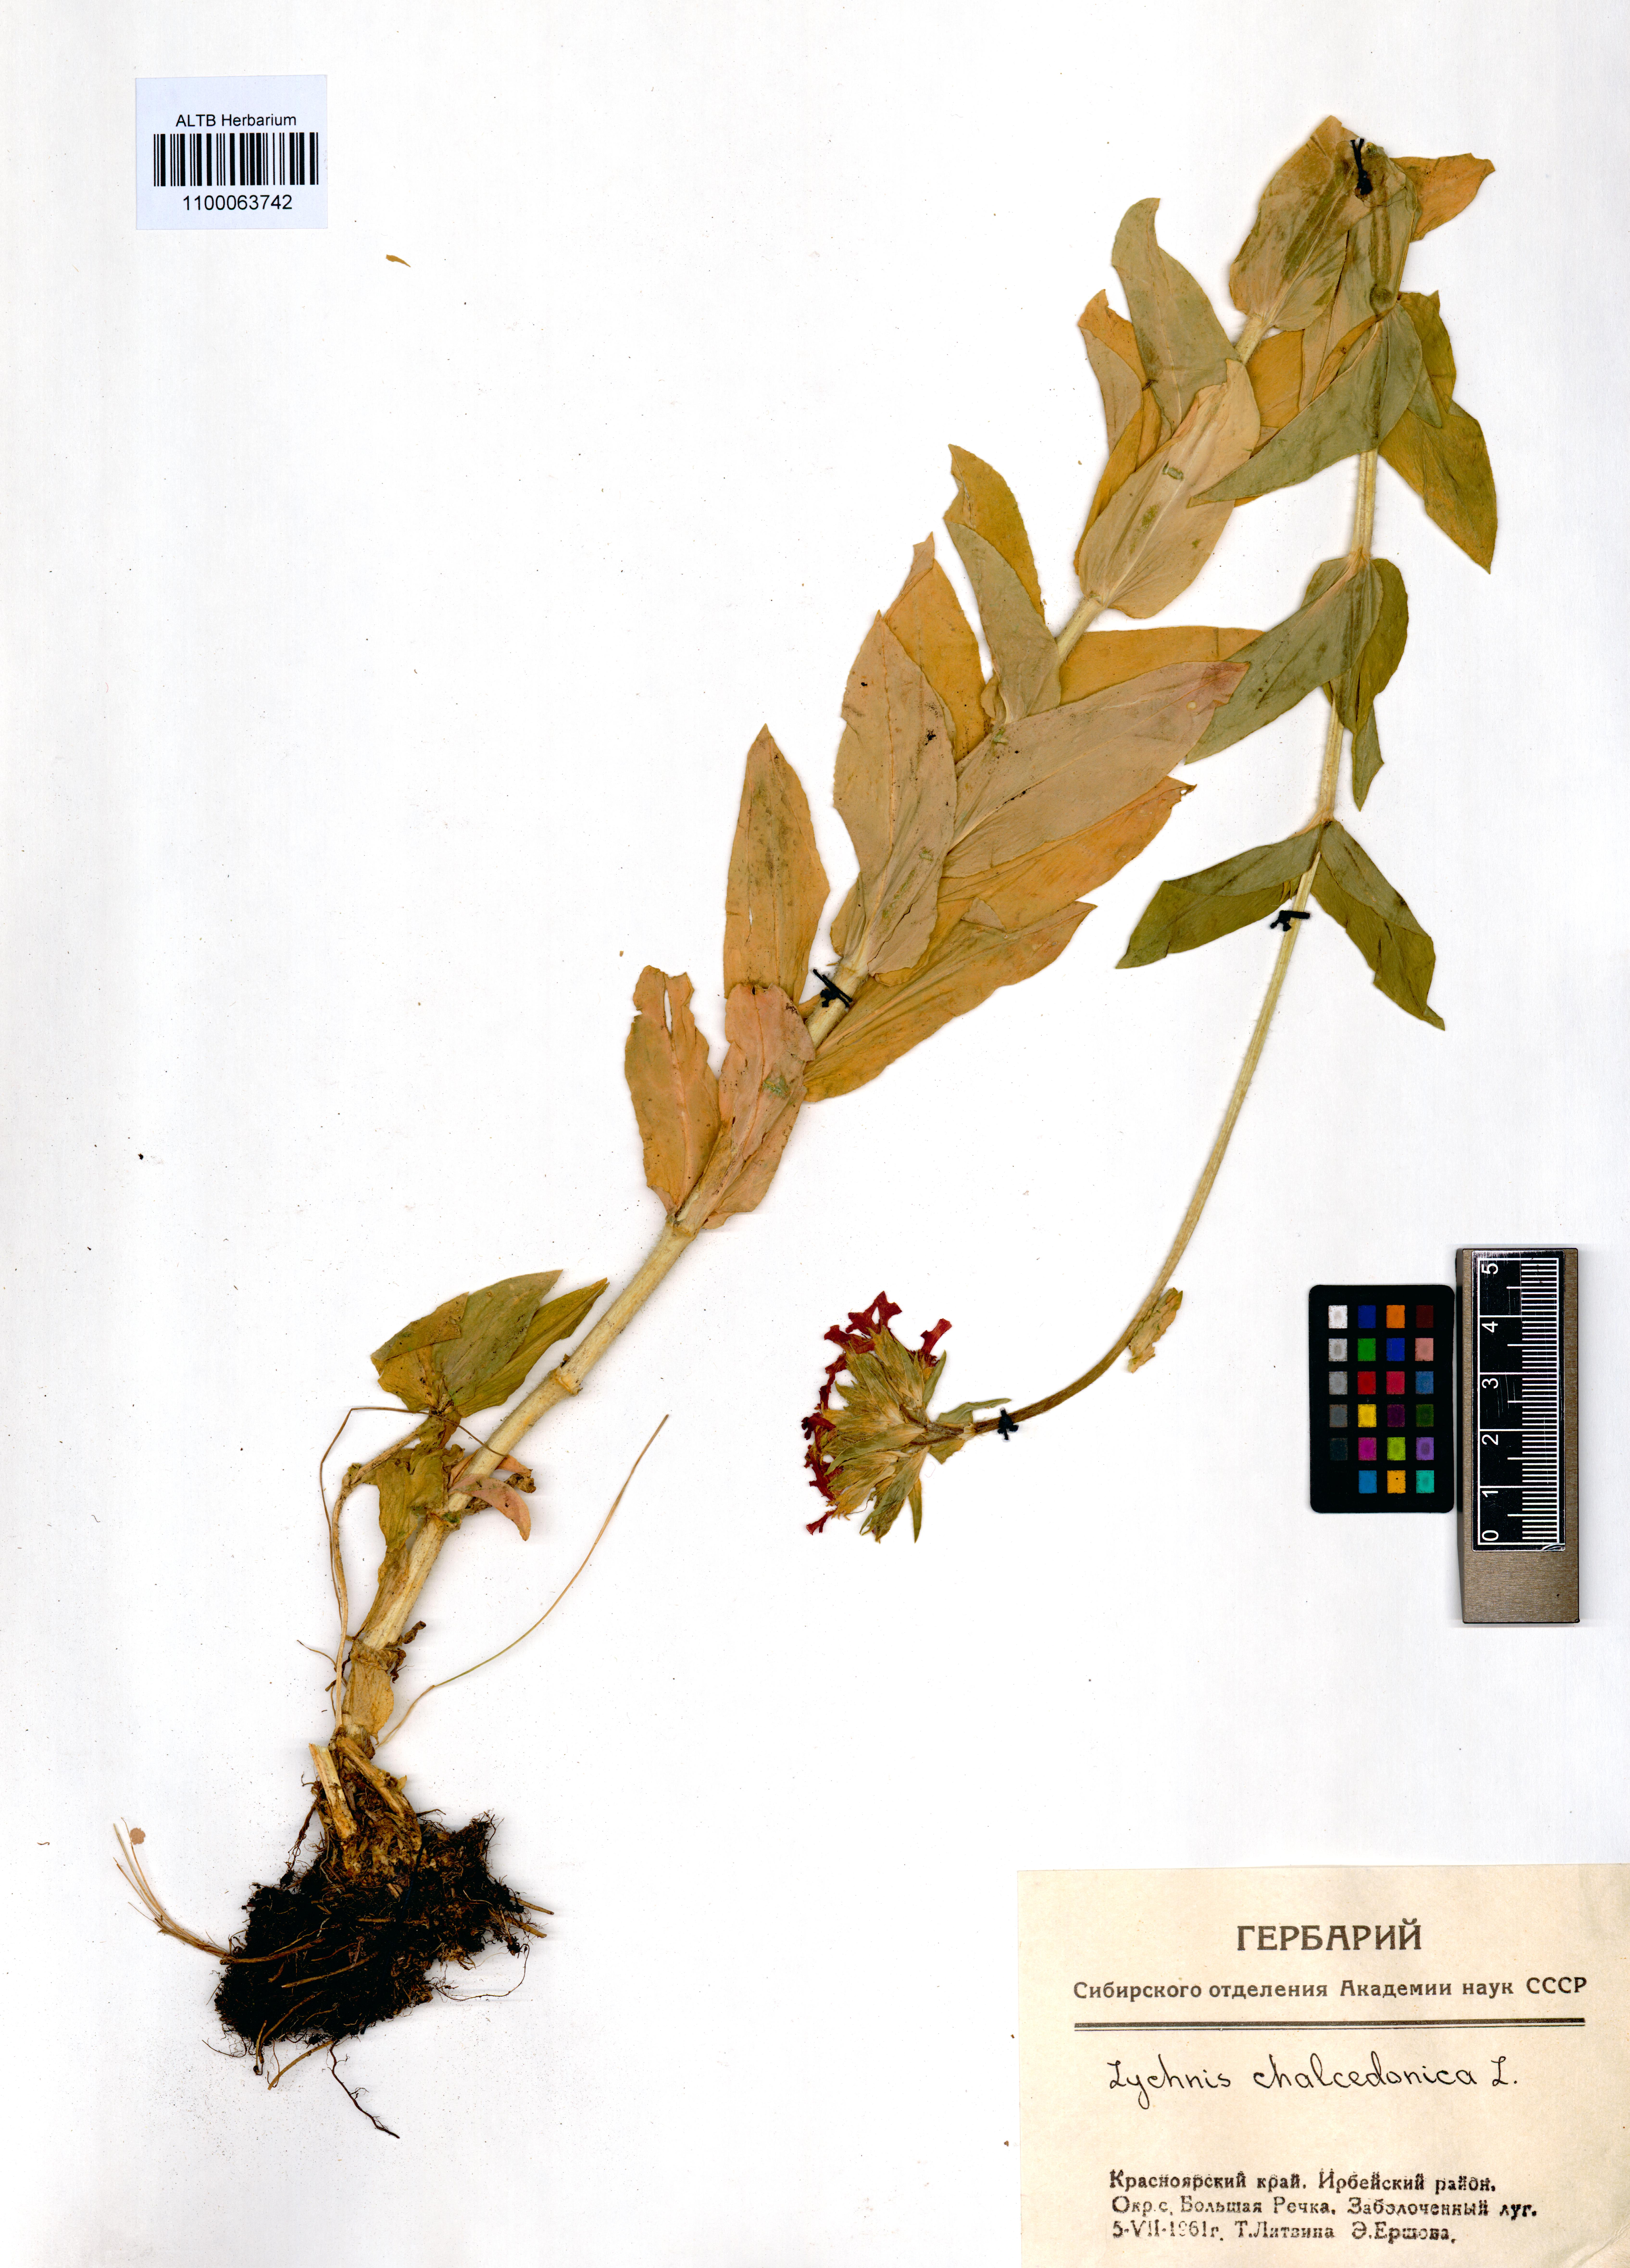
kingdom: Plantae
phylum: Tracheophyta
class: Magnoliopsida
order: Caryophyllales
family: Caryophyllaceae
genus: Silene
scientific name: Silene chalcedonica
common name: Maltese-cross
